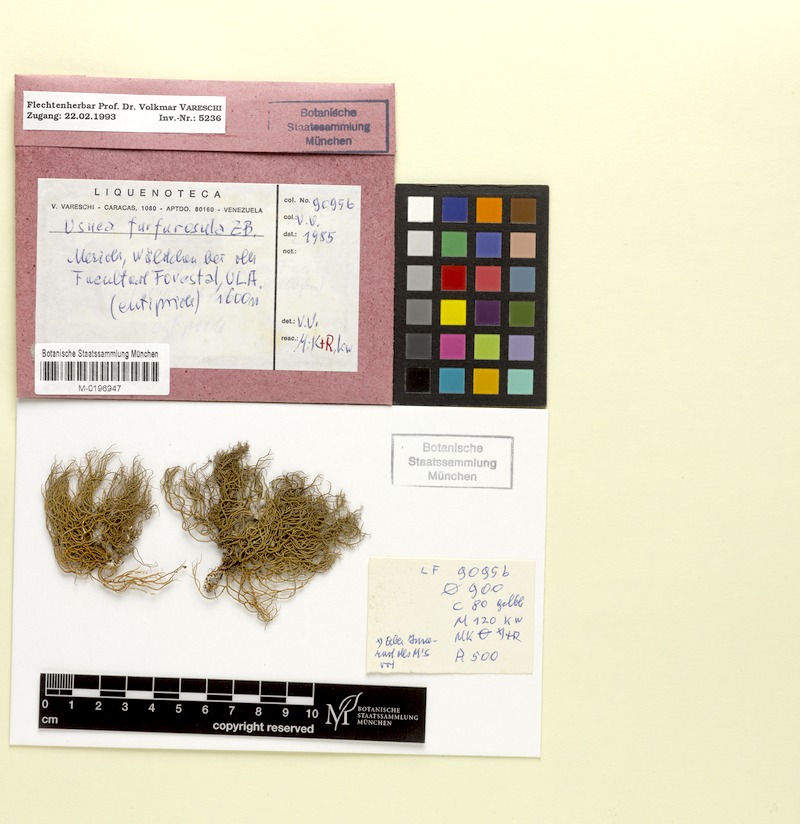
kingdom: Fungi
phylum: Ascomycota
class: Lecanoromycetes
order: Lecanorales
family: Parmeliaceae
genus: Usnea
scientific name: Usnea furfurosula
